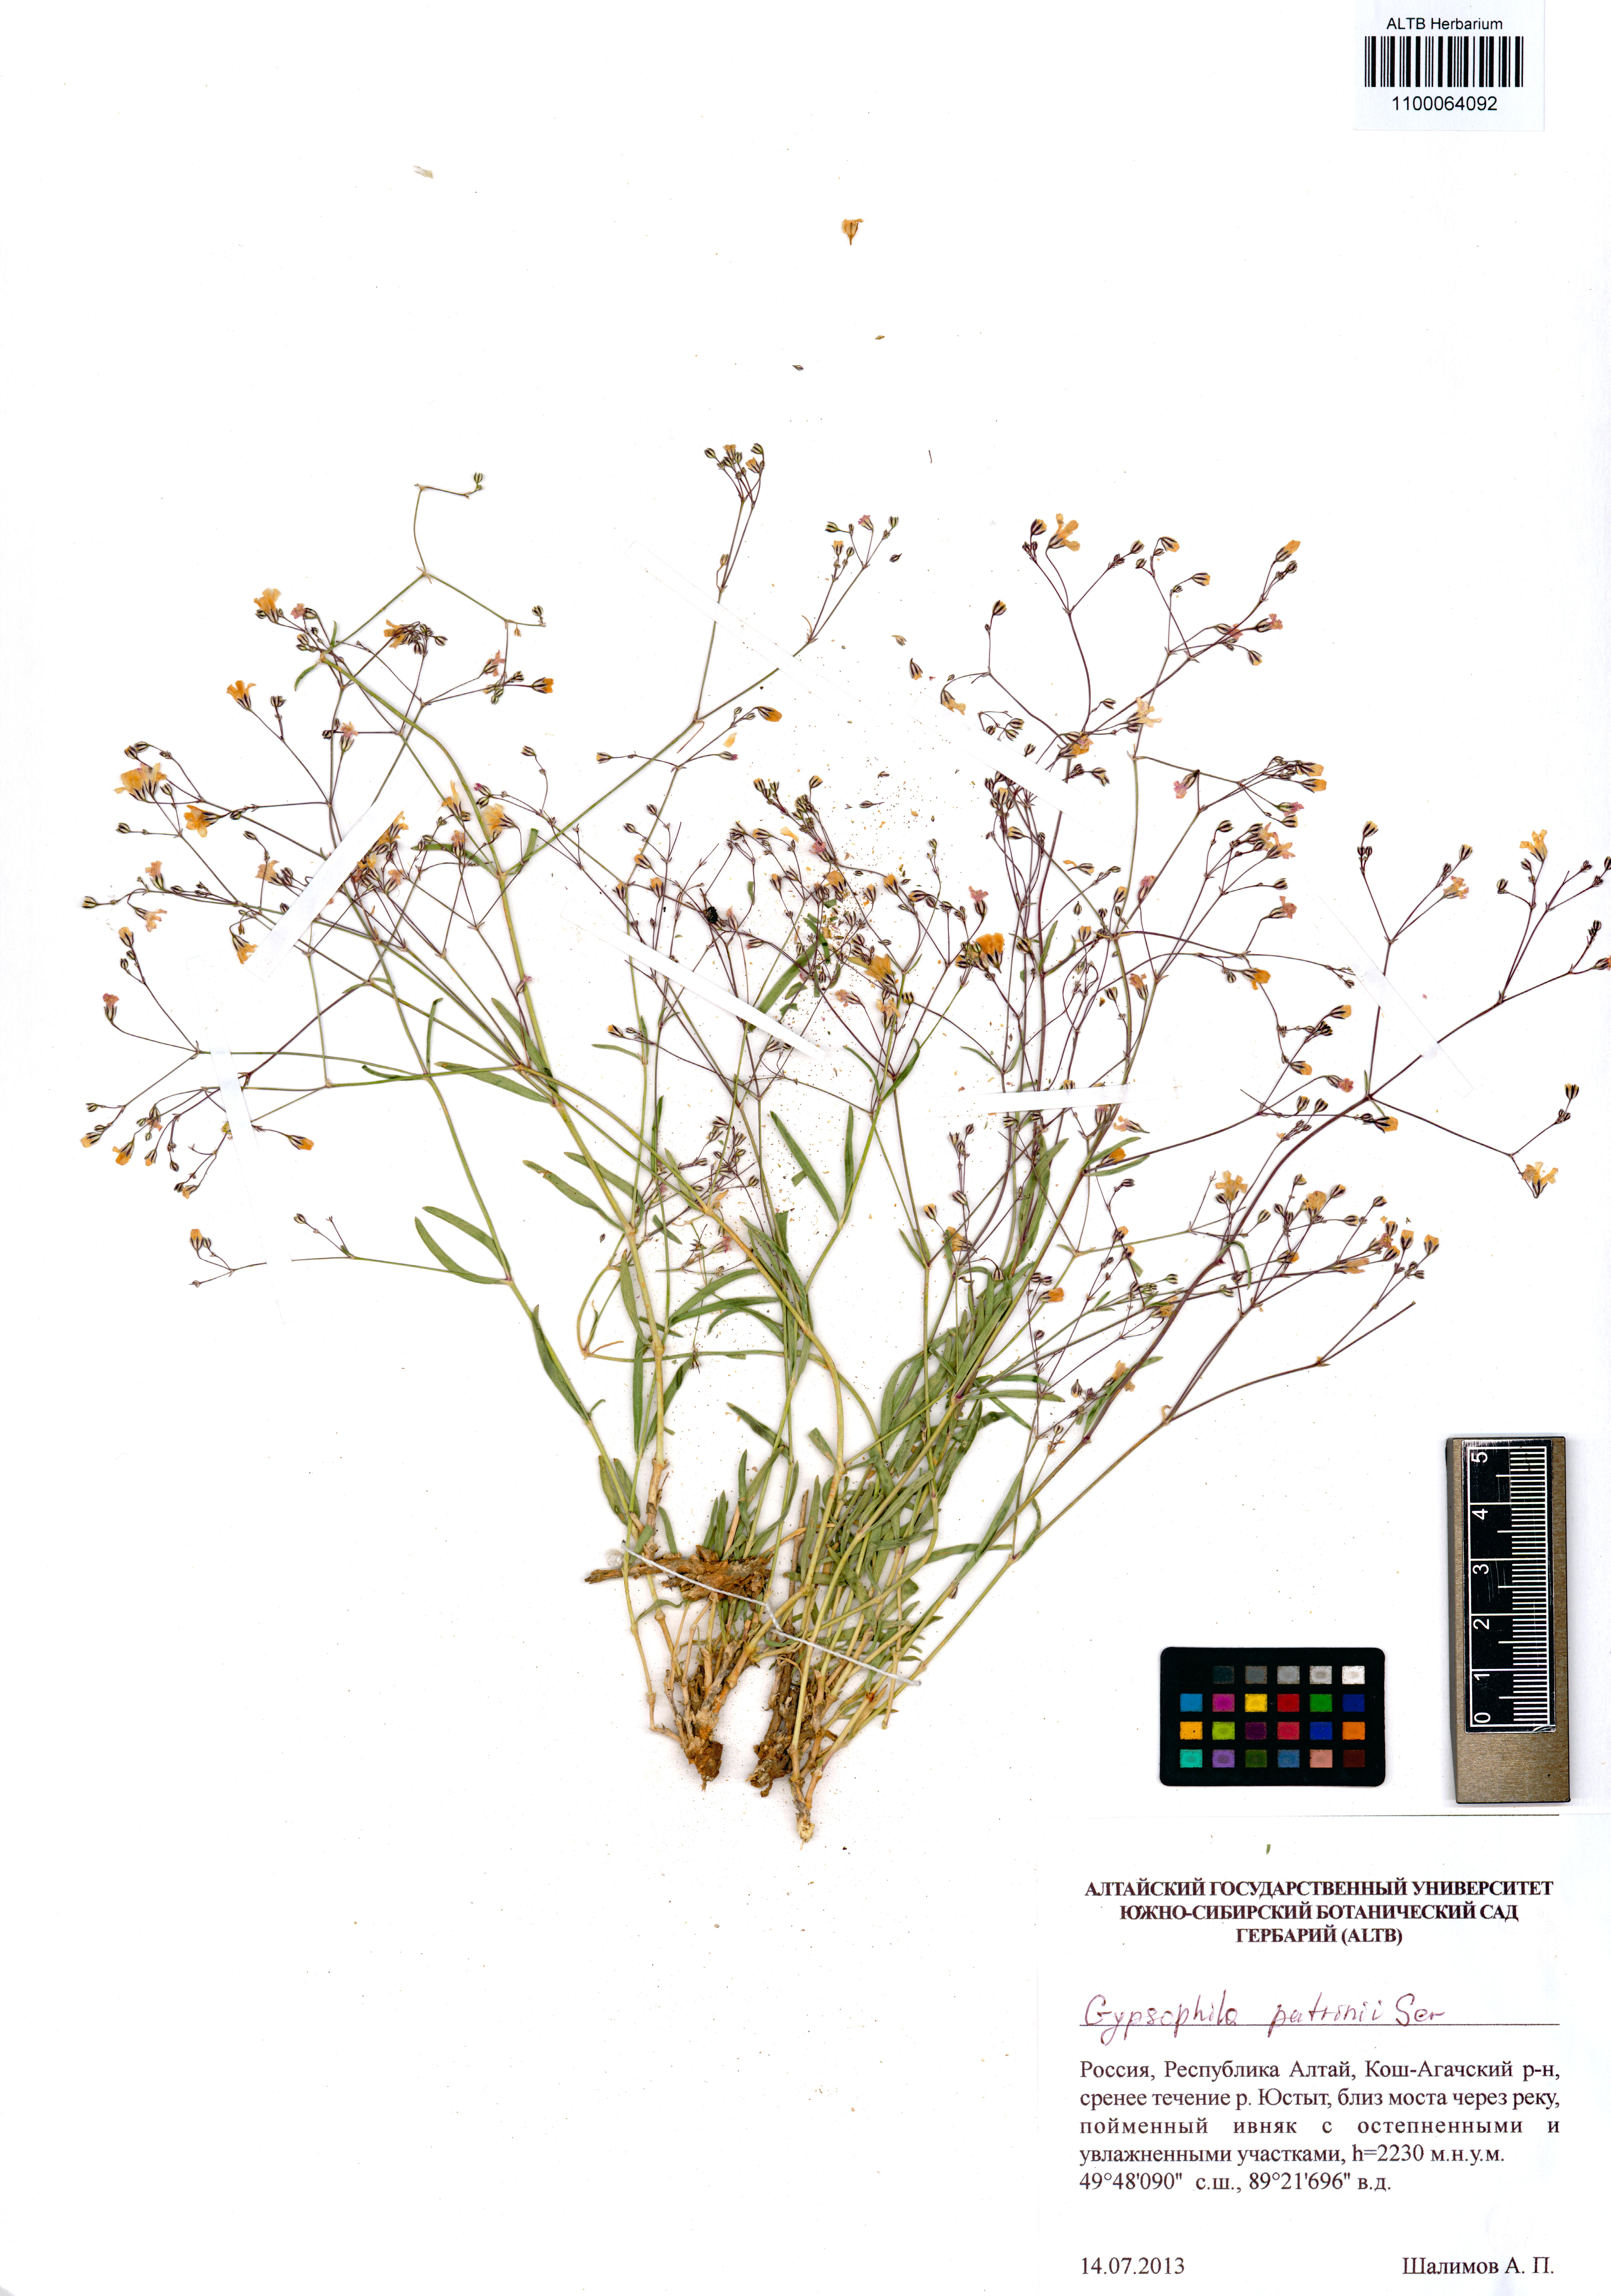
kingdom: Plantae
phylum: Tracheophyta
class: Magnoliopsida
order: Caryophyllales
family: Caryophyllaceae
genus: Gypsophila
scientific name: Gypsophila patrinii
